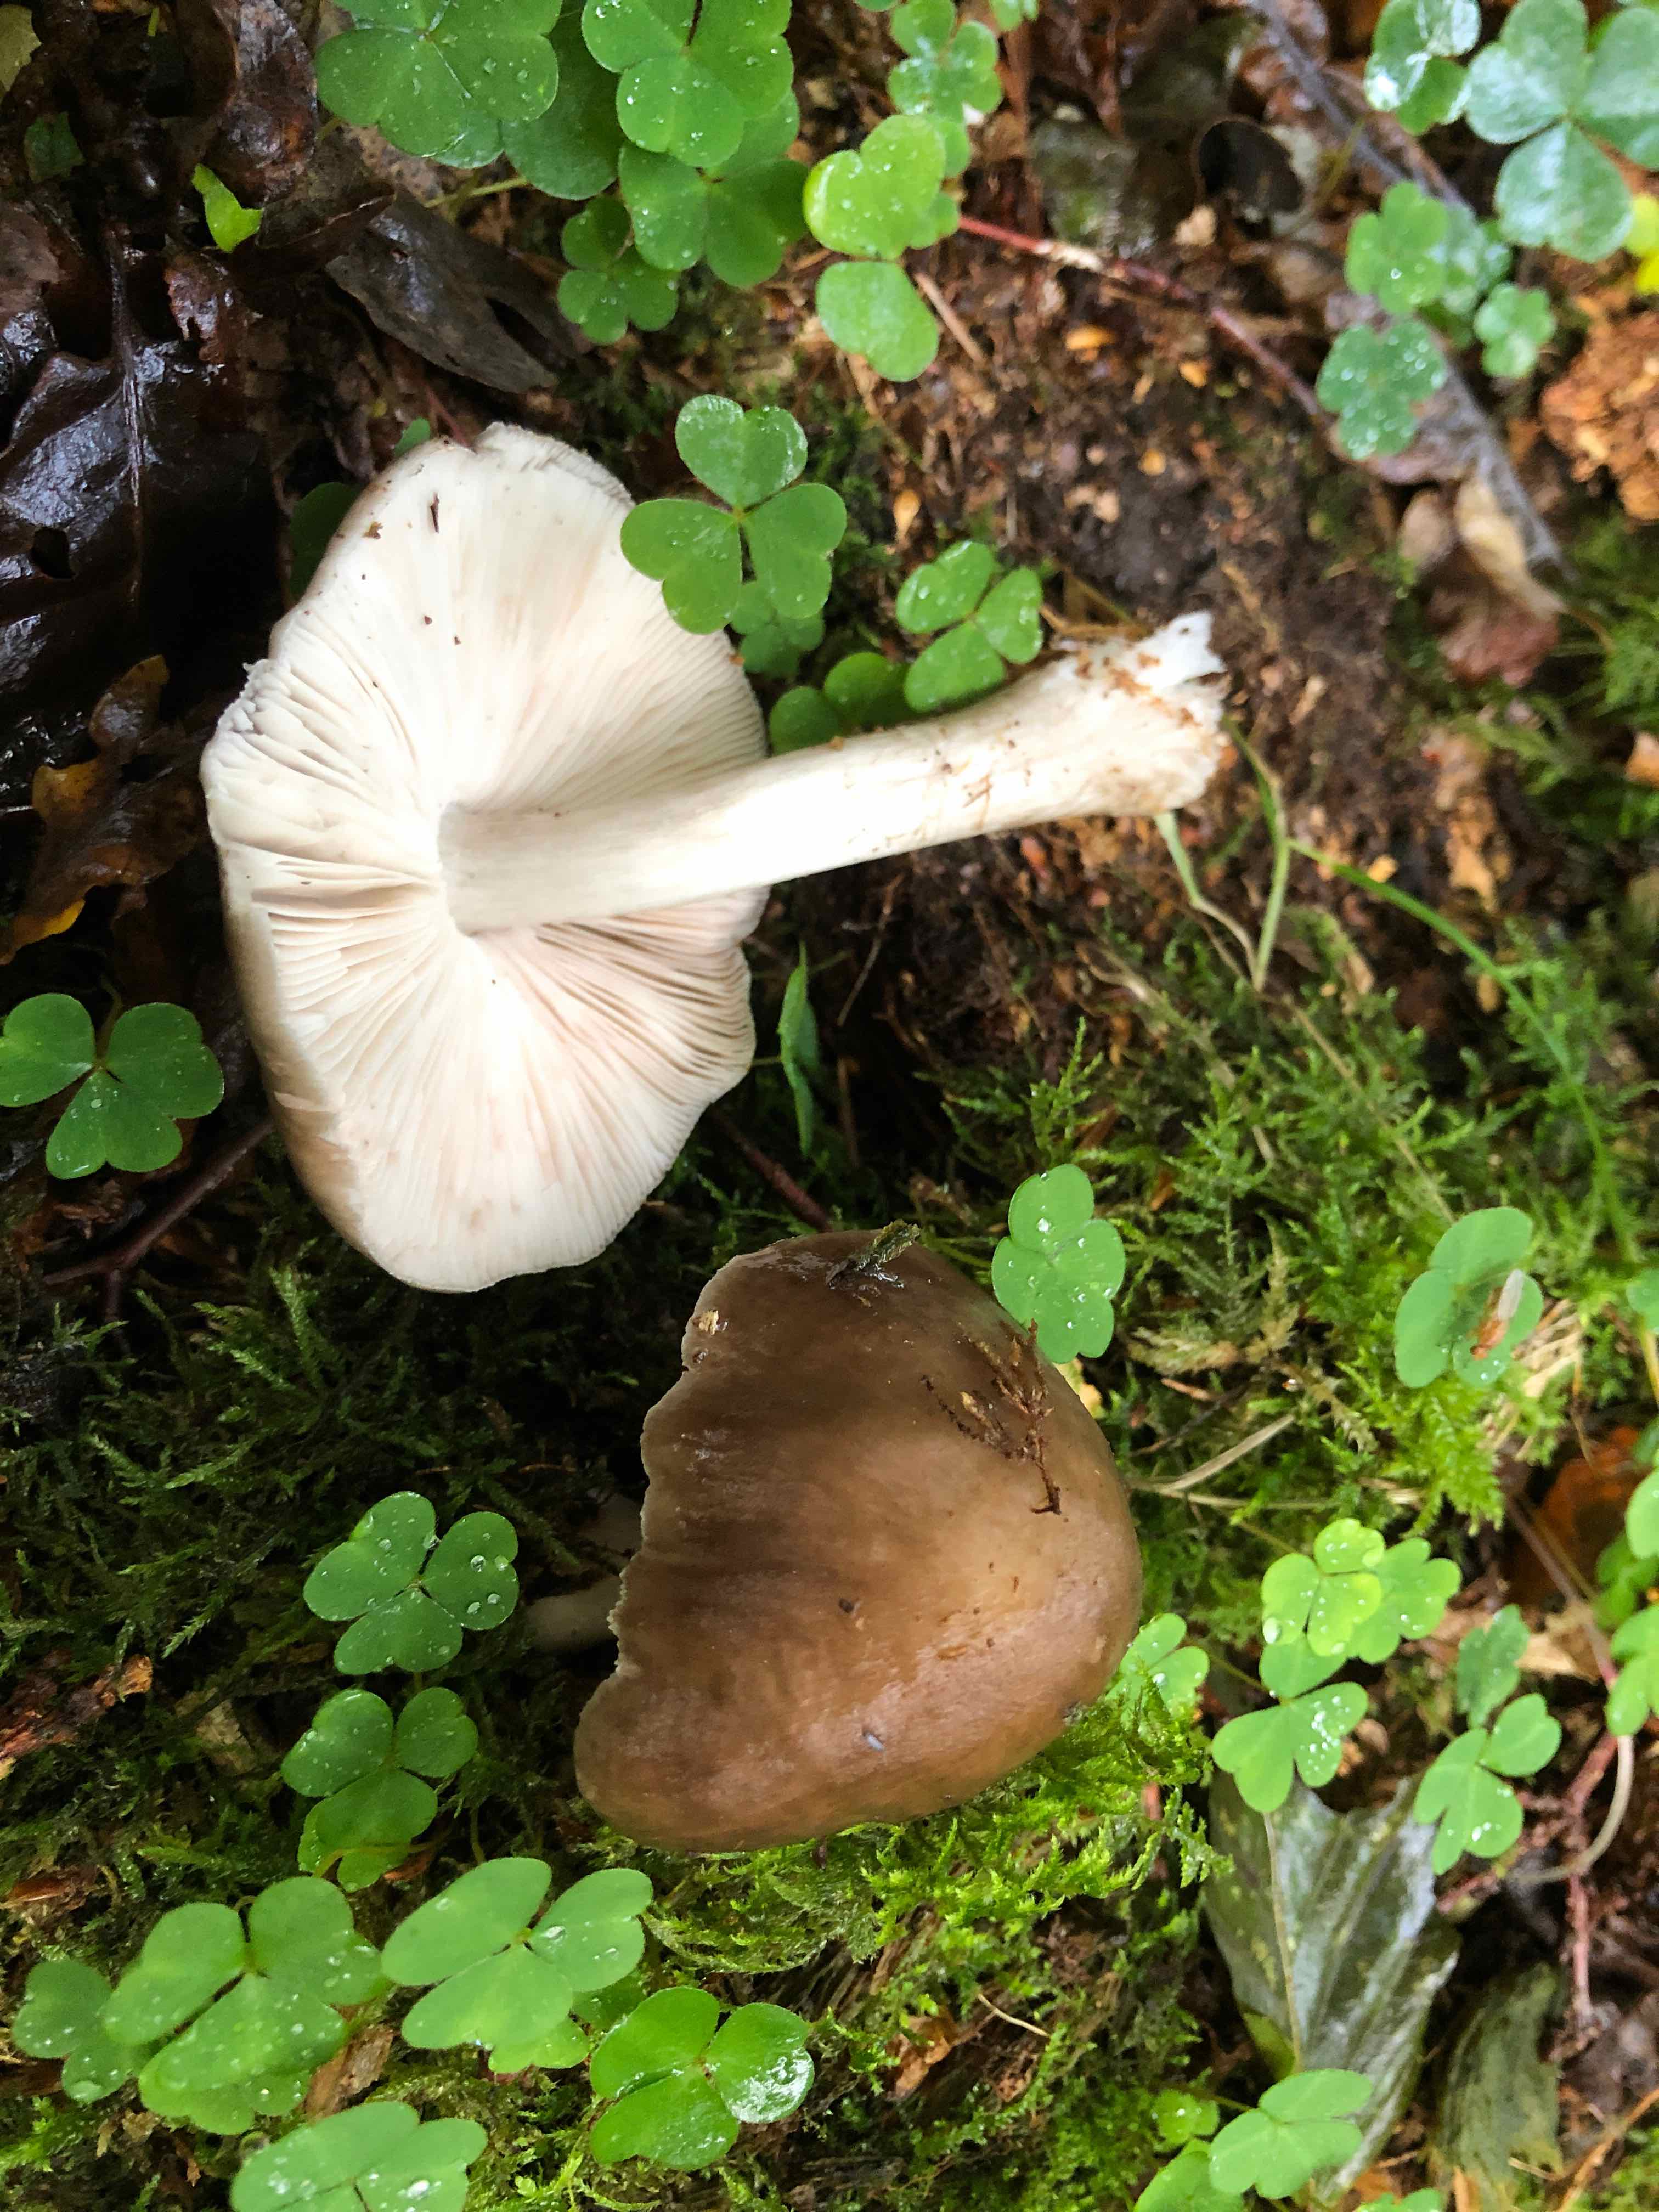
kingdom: Fungi
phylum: Basidiomycota
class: Agaricomycetes
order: Agaricales
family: Pluteaceae
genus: Pluteus
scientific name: Pluteus cervinus
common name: sodfarvet skærmhat
